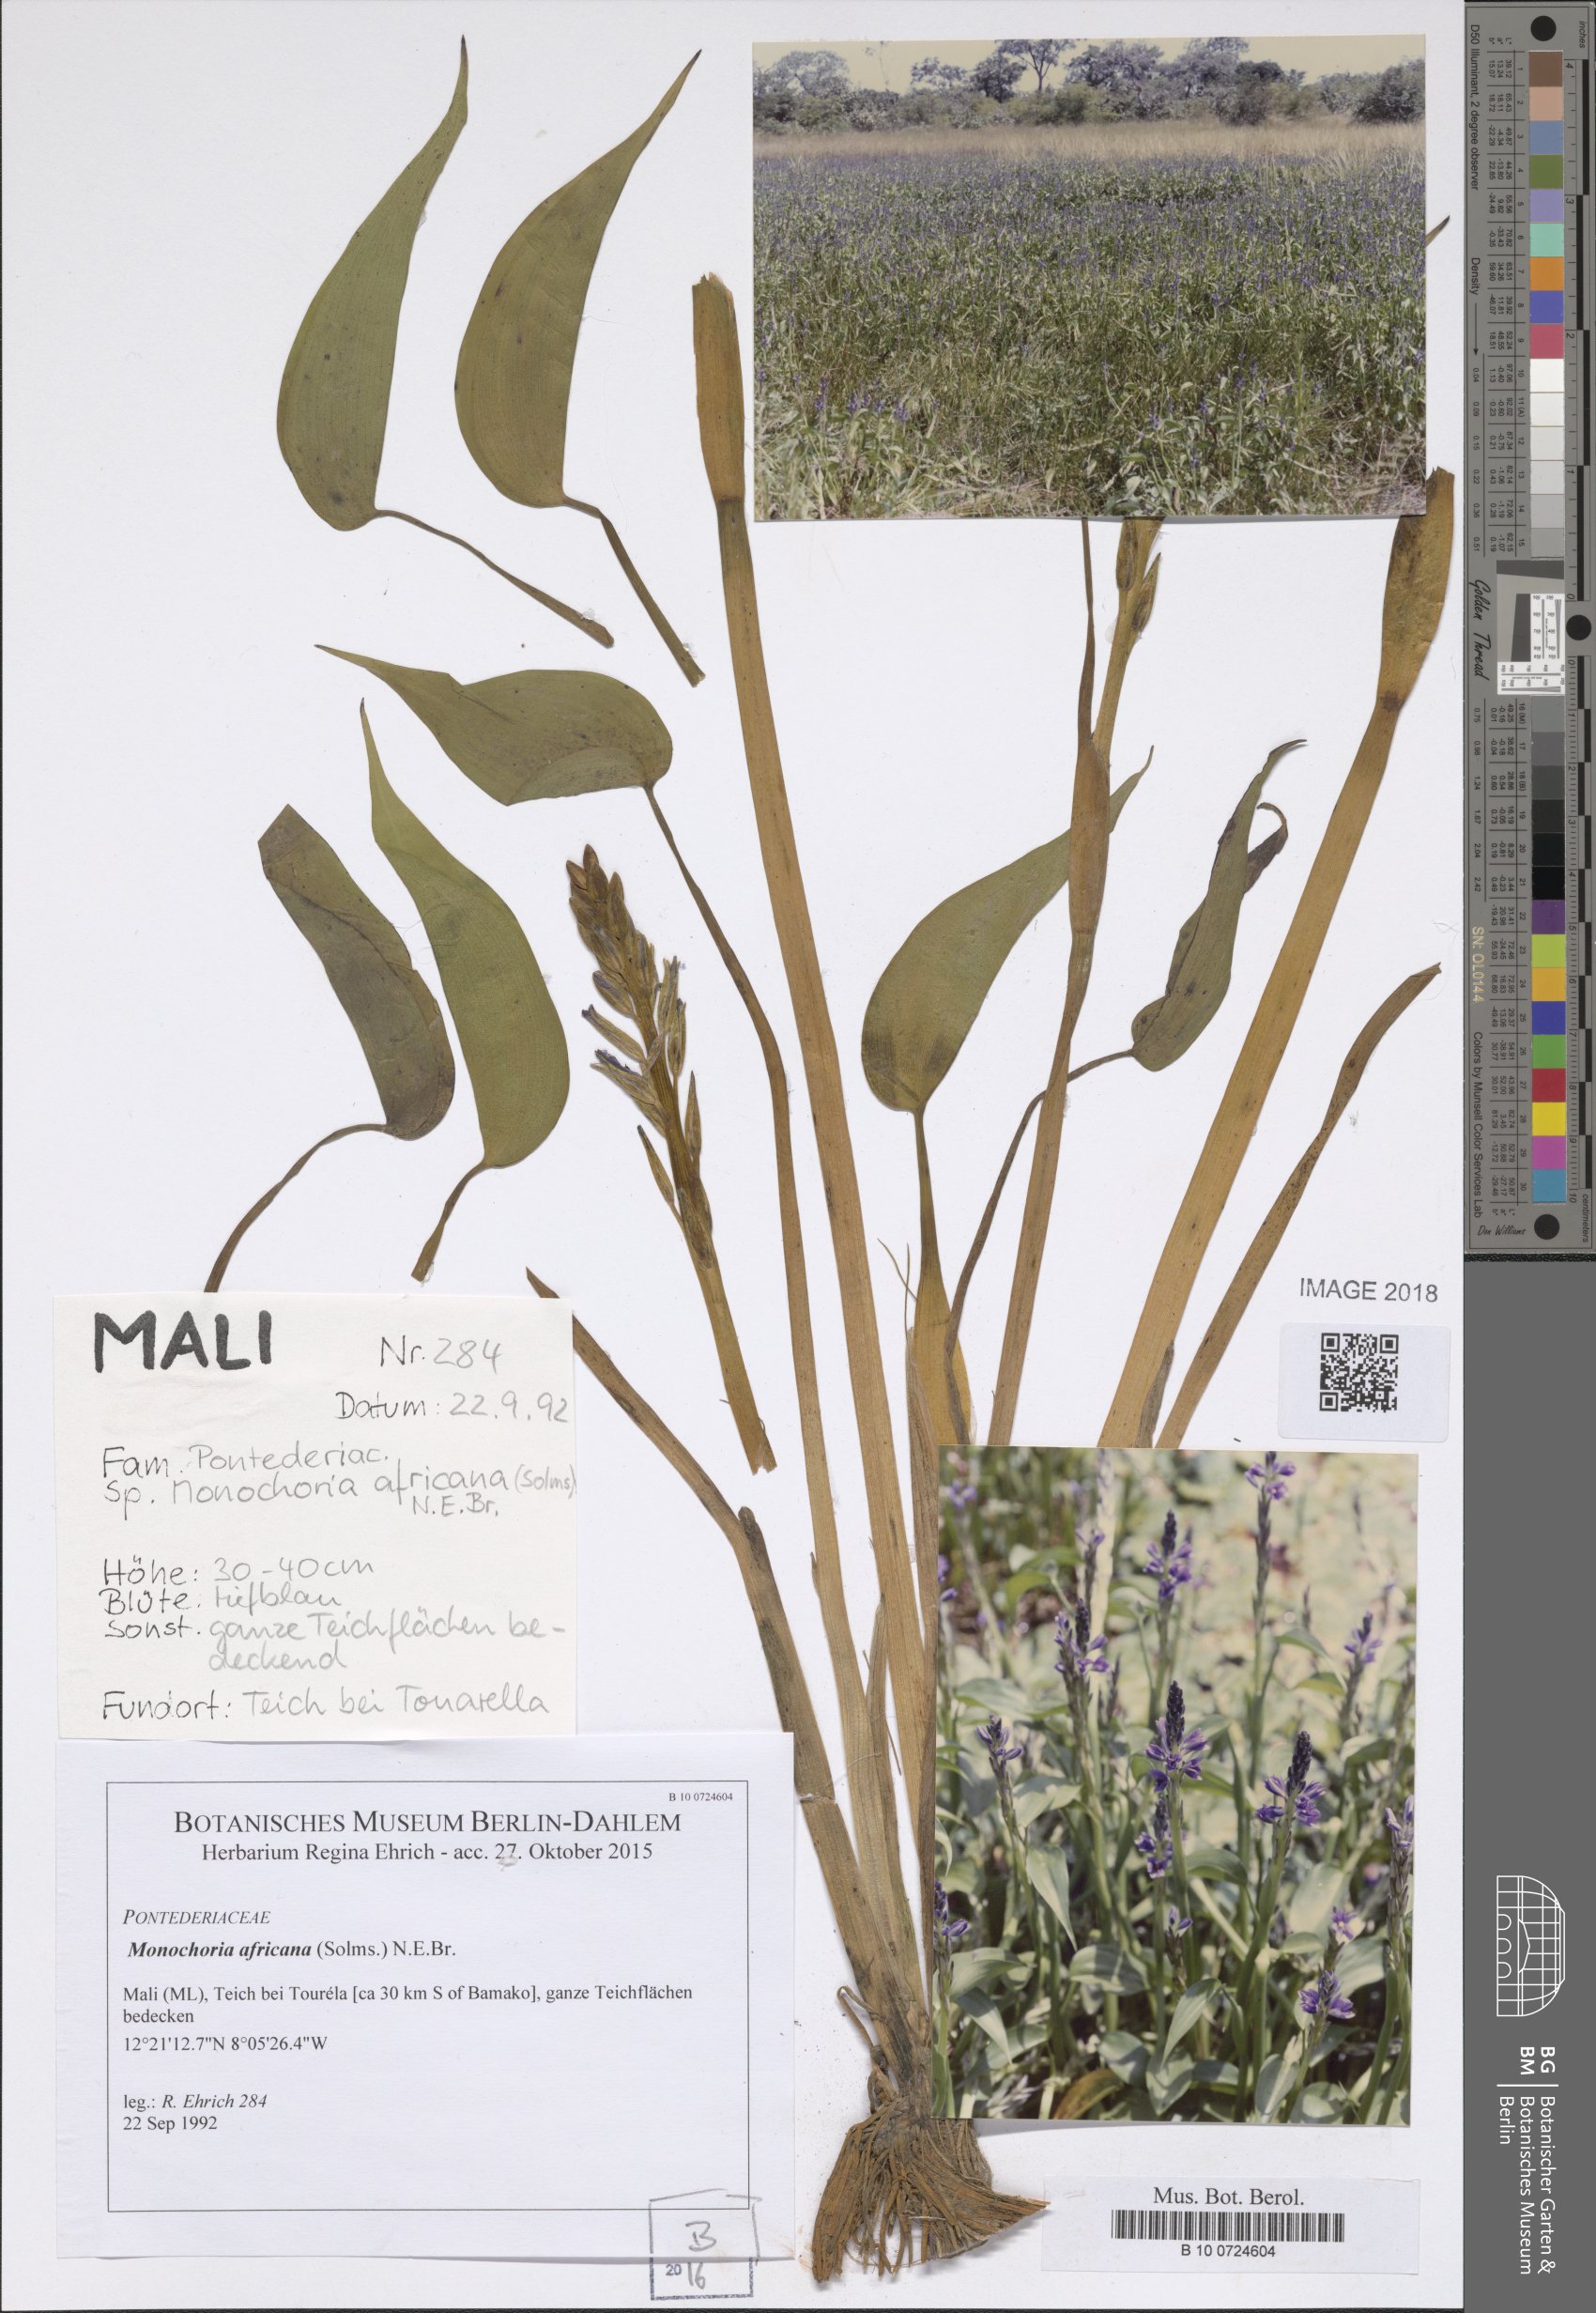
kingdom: Plantae
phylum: Tracheophyta
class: Liliopsida
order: Commelinales
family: Pontederiaceae
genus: Pontederia
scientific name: Pontederia africana
